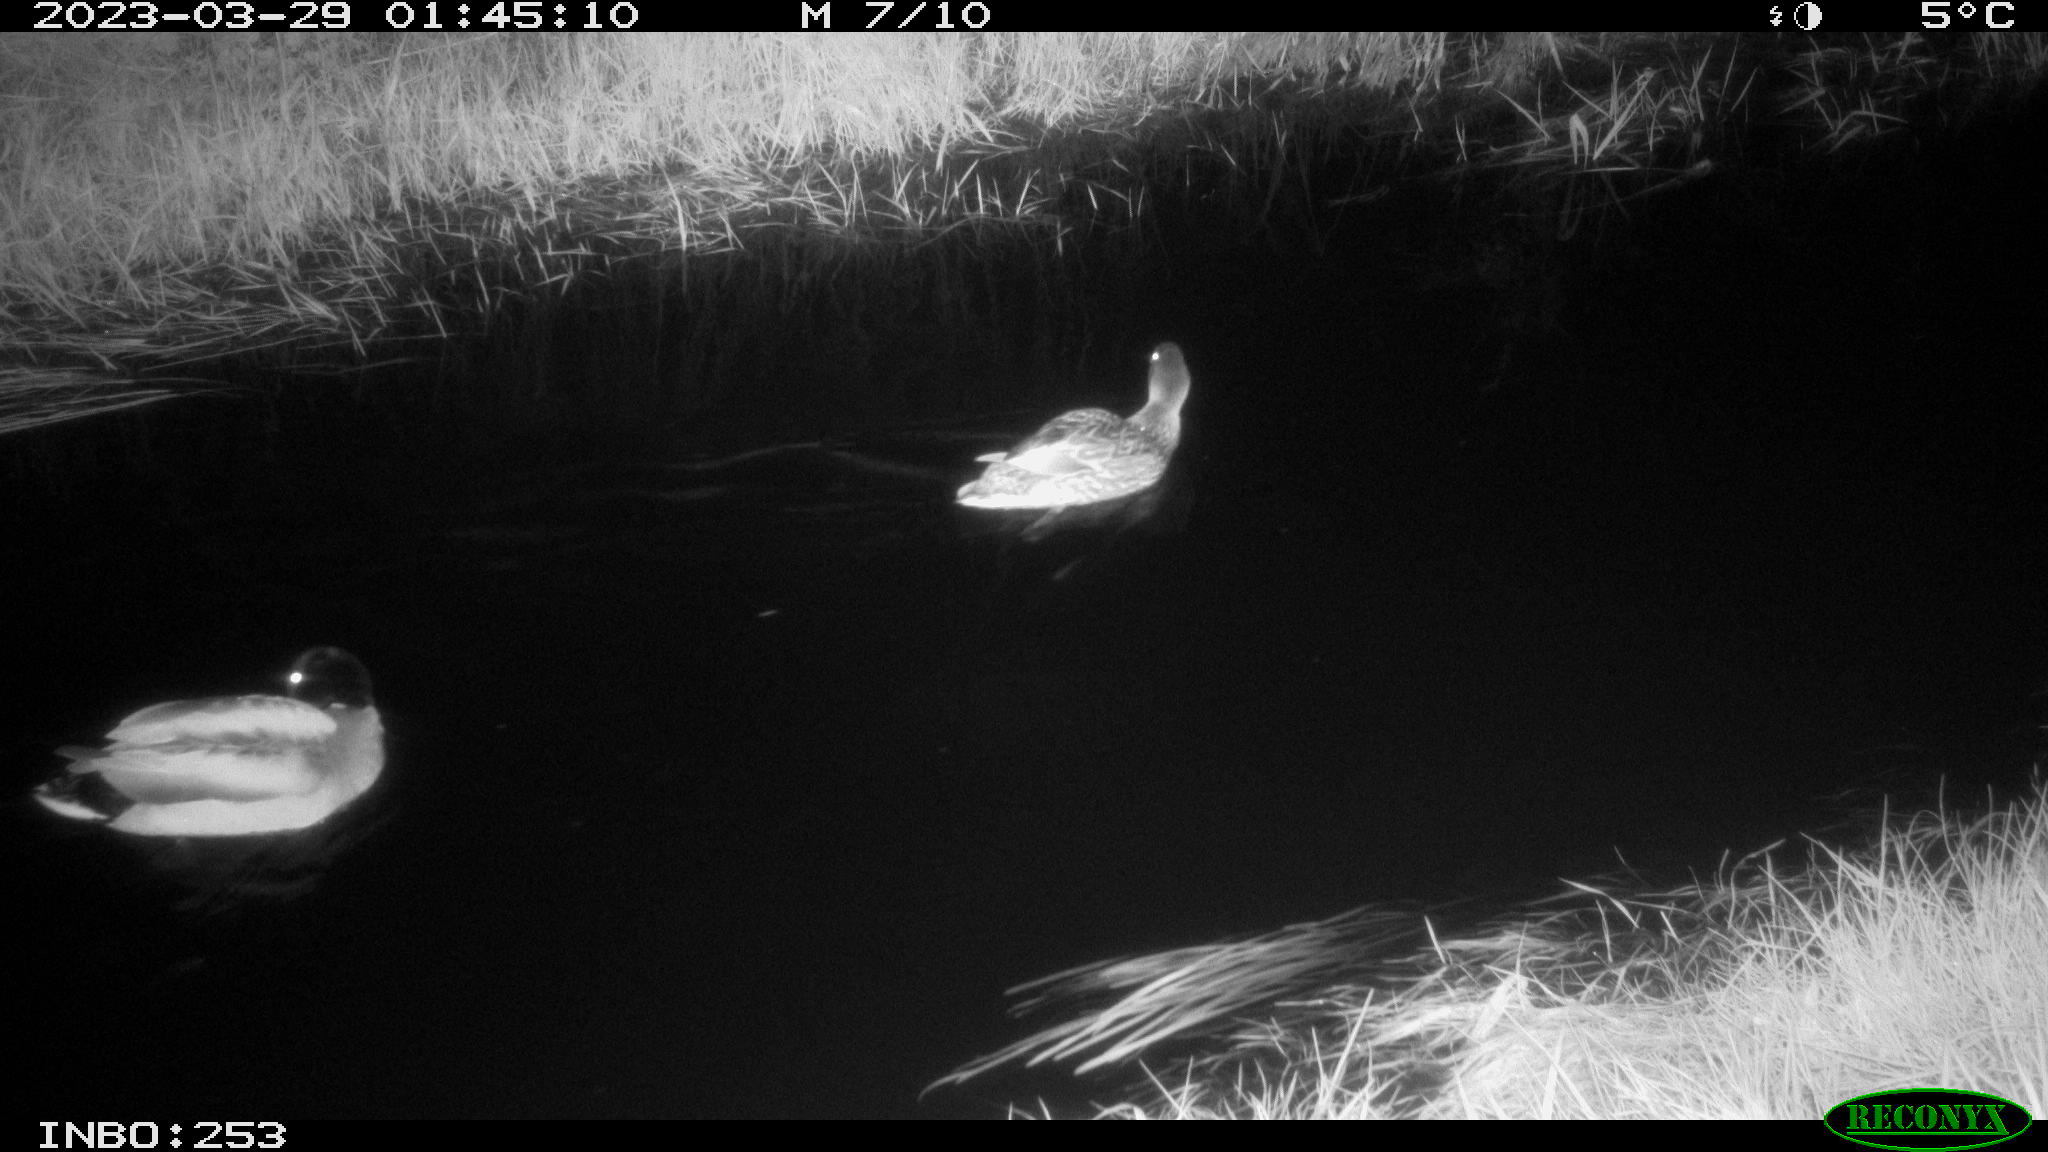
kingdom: Animalia
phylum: Chordata
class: Aves
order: Anseriformes
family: Anatidae
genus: Anas
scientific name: Anas
